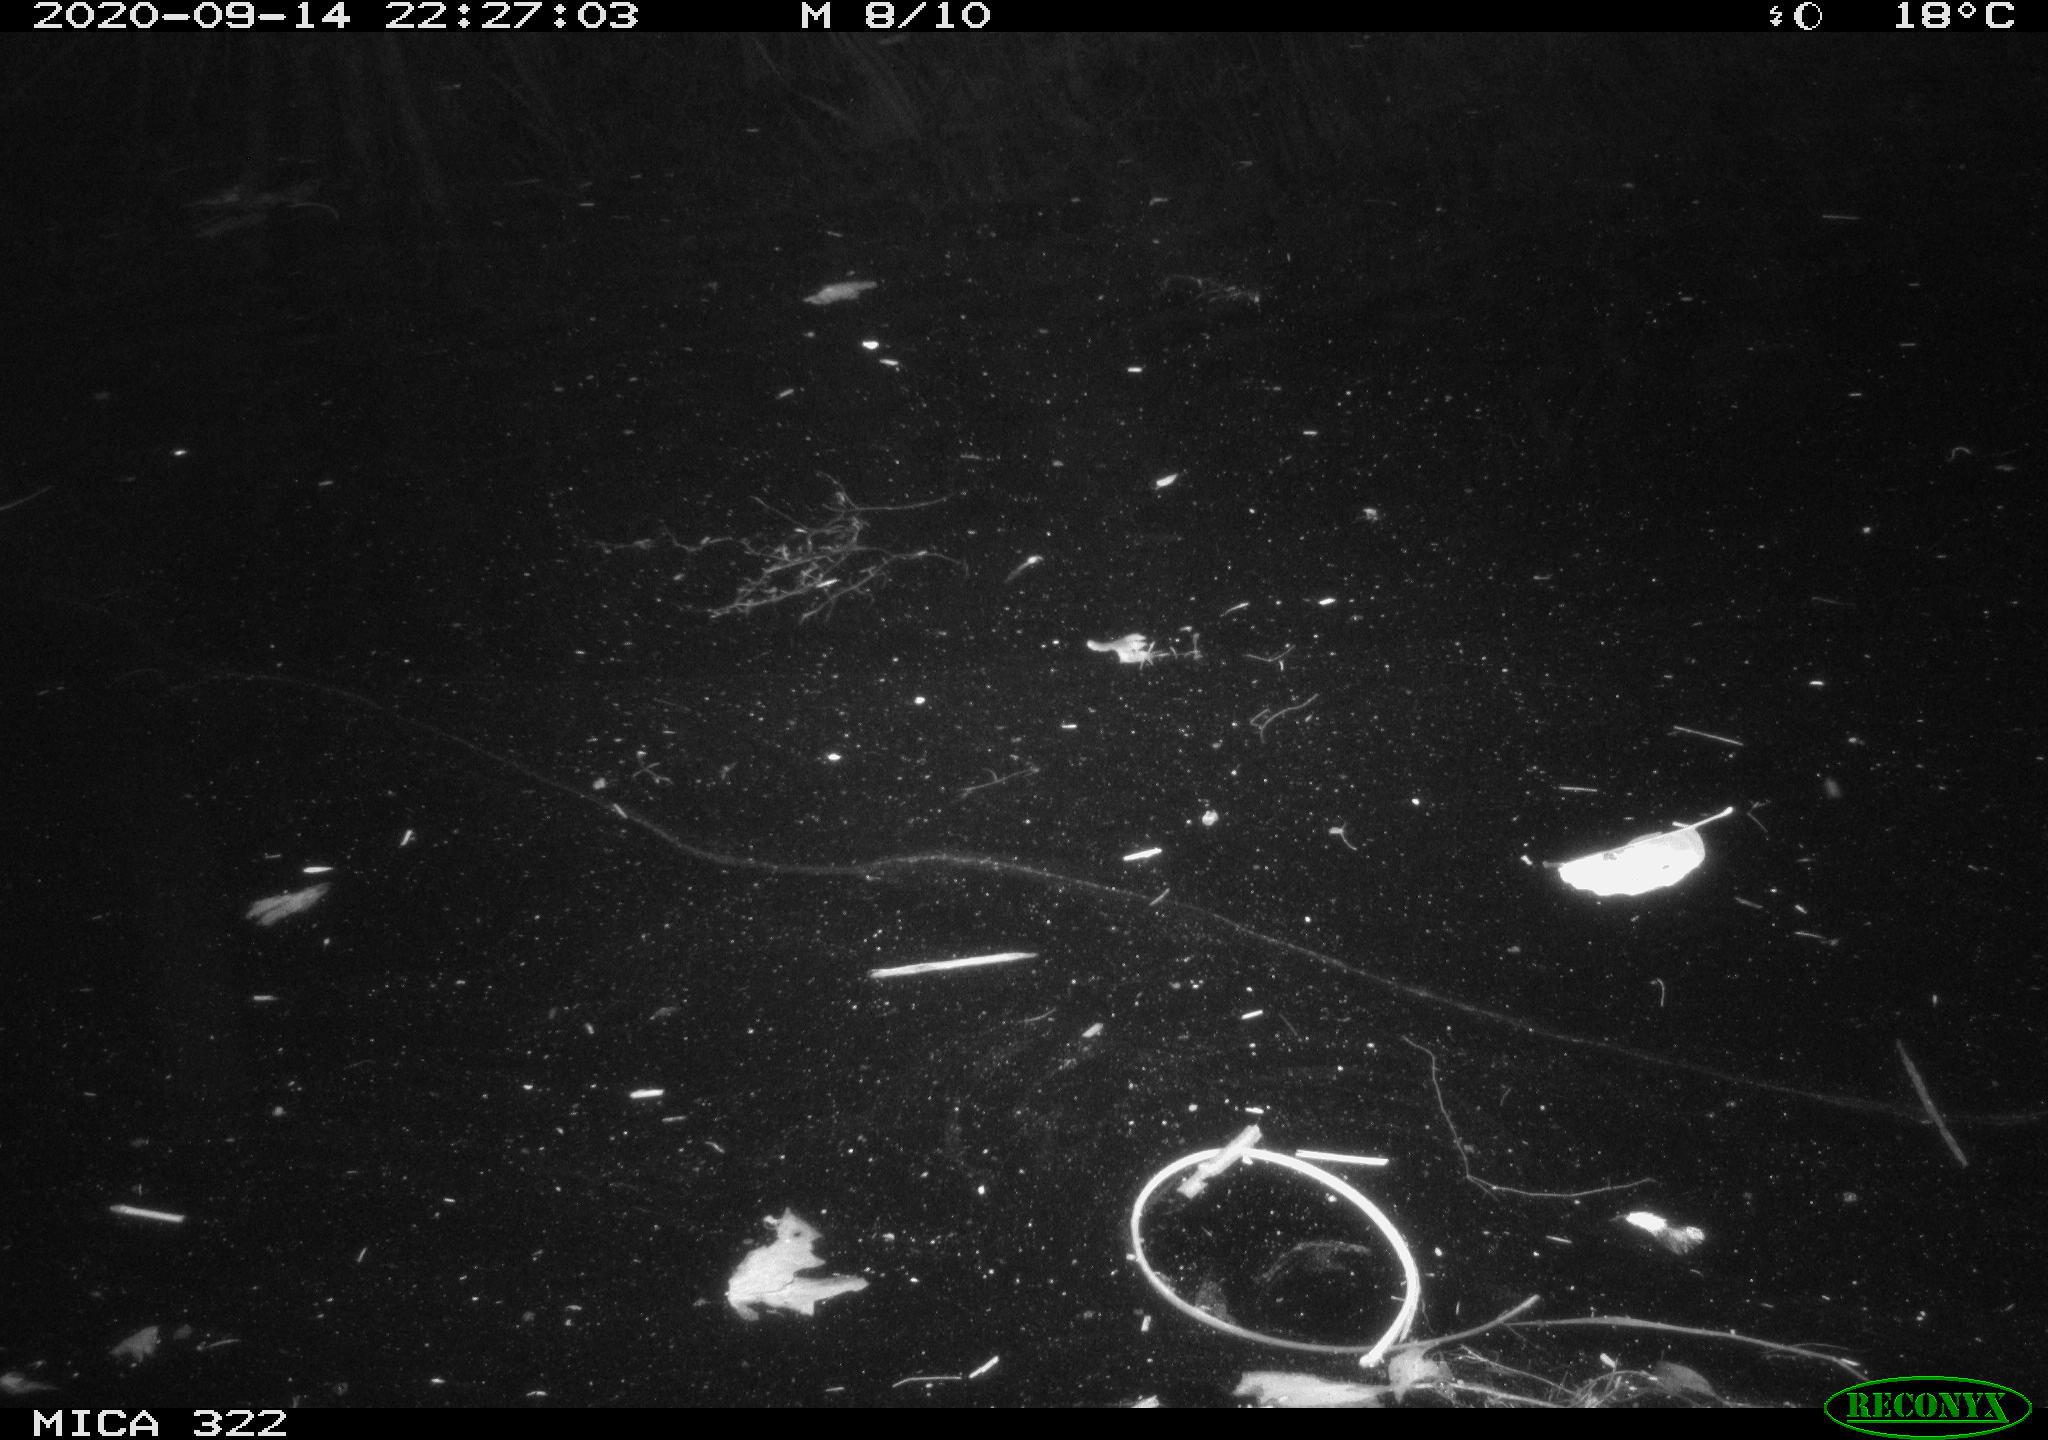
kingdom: Animalia
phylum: Chordata
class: Mammalia
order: Rodentia
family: Muridae
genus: Rattus
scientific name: Rattus norvegicus
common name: Brown rat
